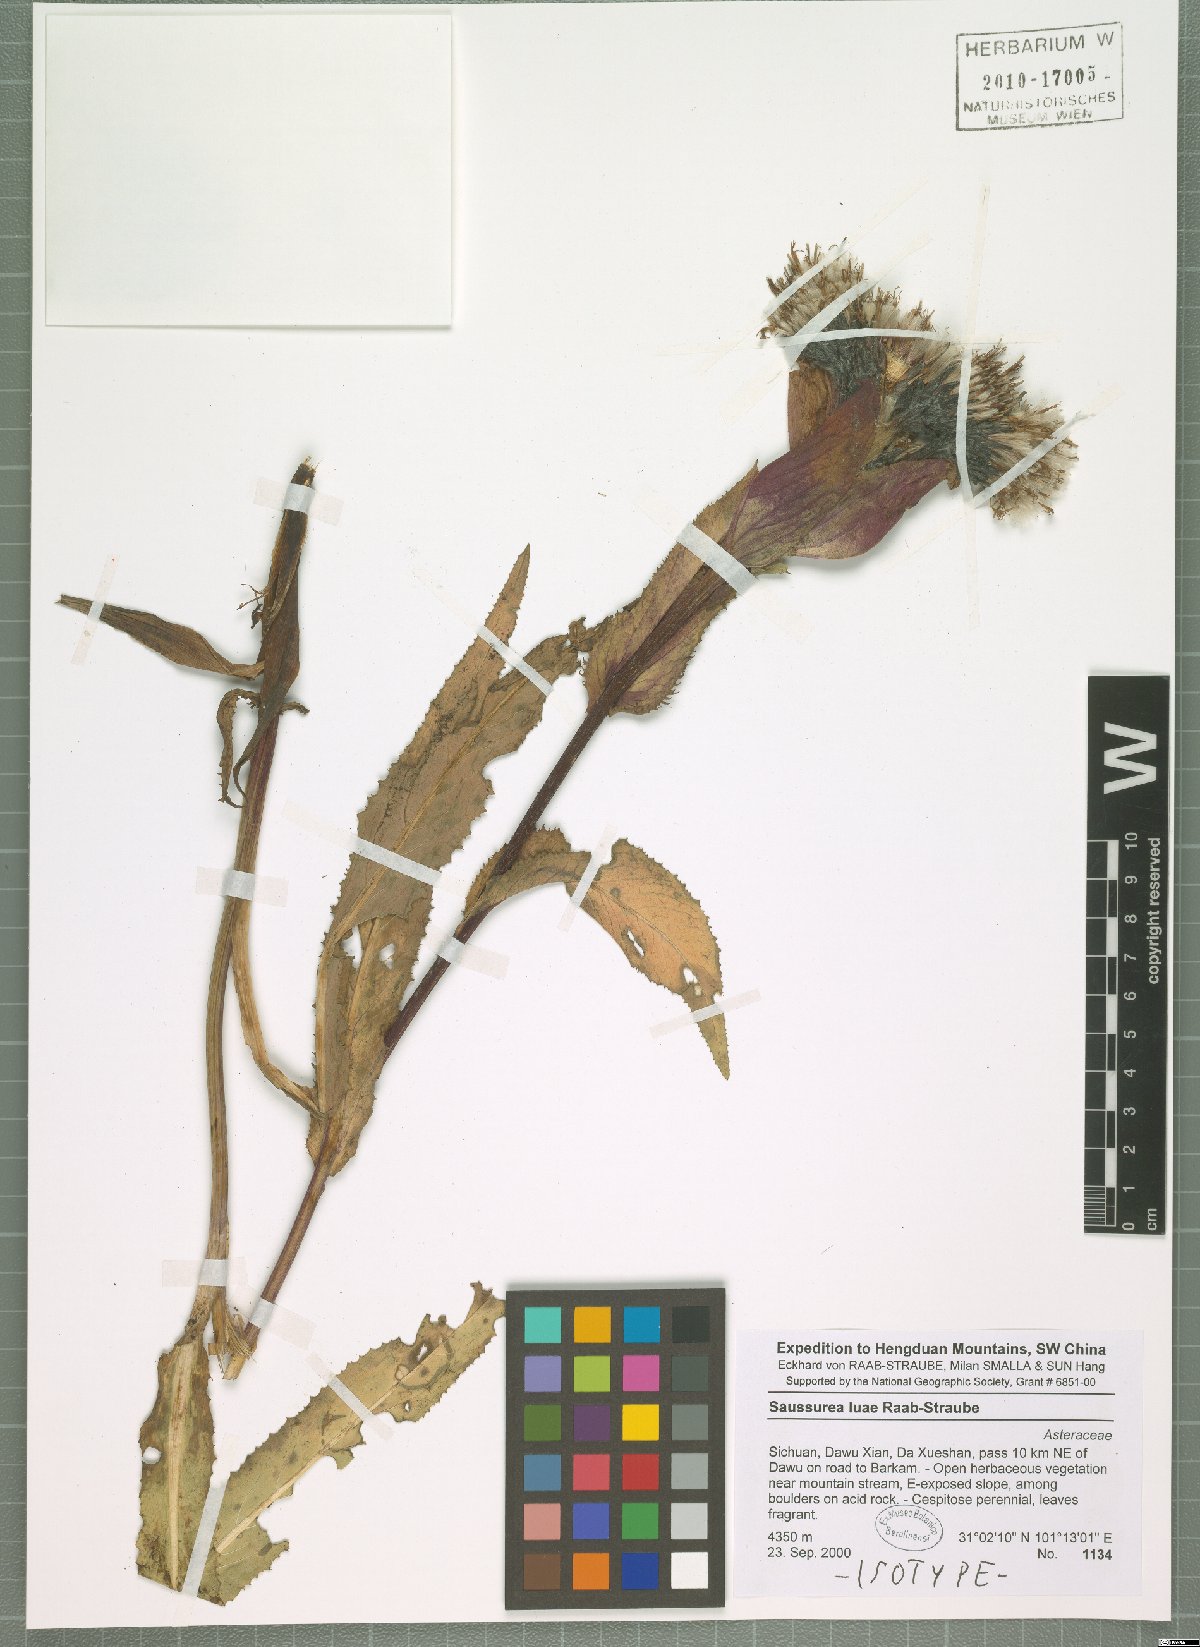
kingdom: Plantae
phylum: Tracheophyta
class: Magnoliopsida
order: Asterales
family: Asteraceae
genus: Saussurea
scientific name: Saussurea luae
